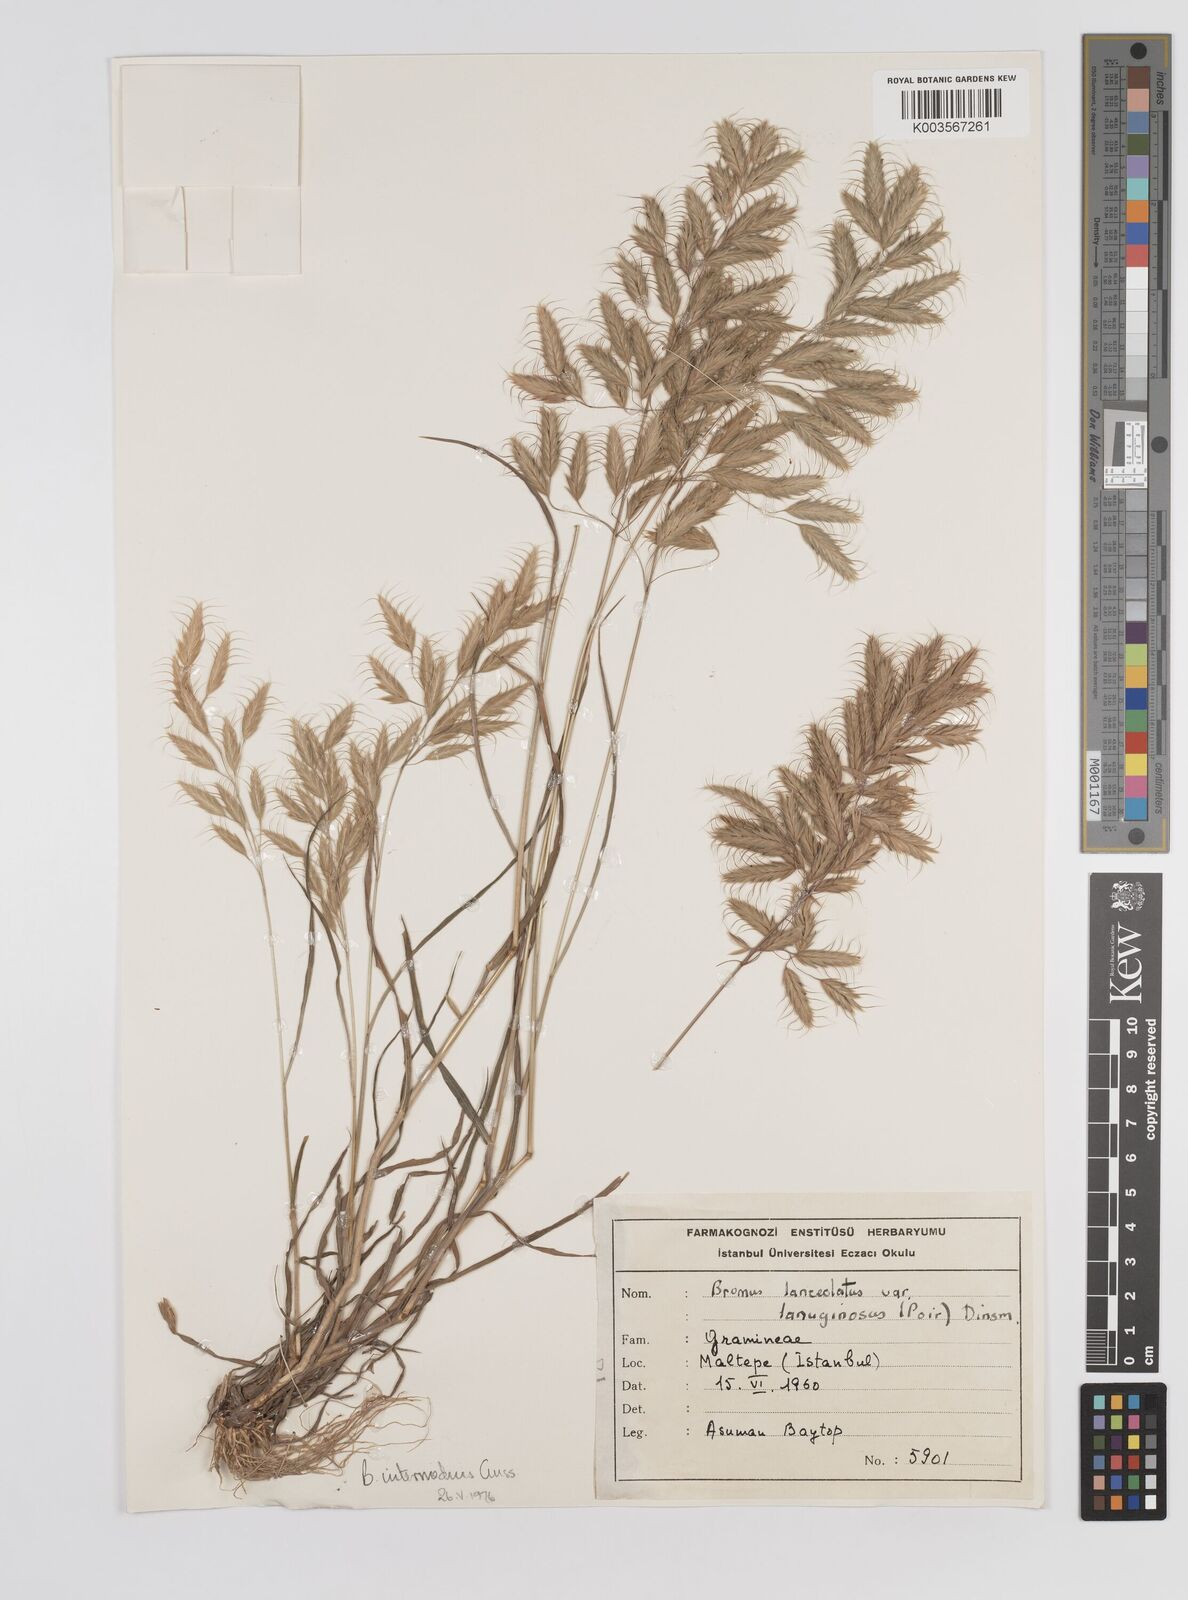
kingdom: Plantae
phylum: Tracheophyta
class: Liliopsida
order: Poales
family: Poaceae
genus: Bromus
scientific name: Bromus intermedius
